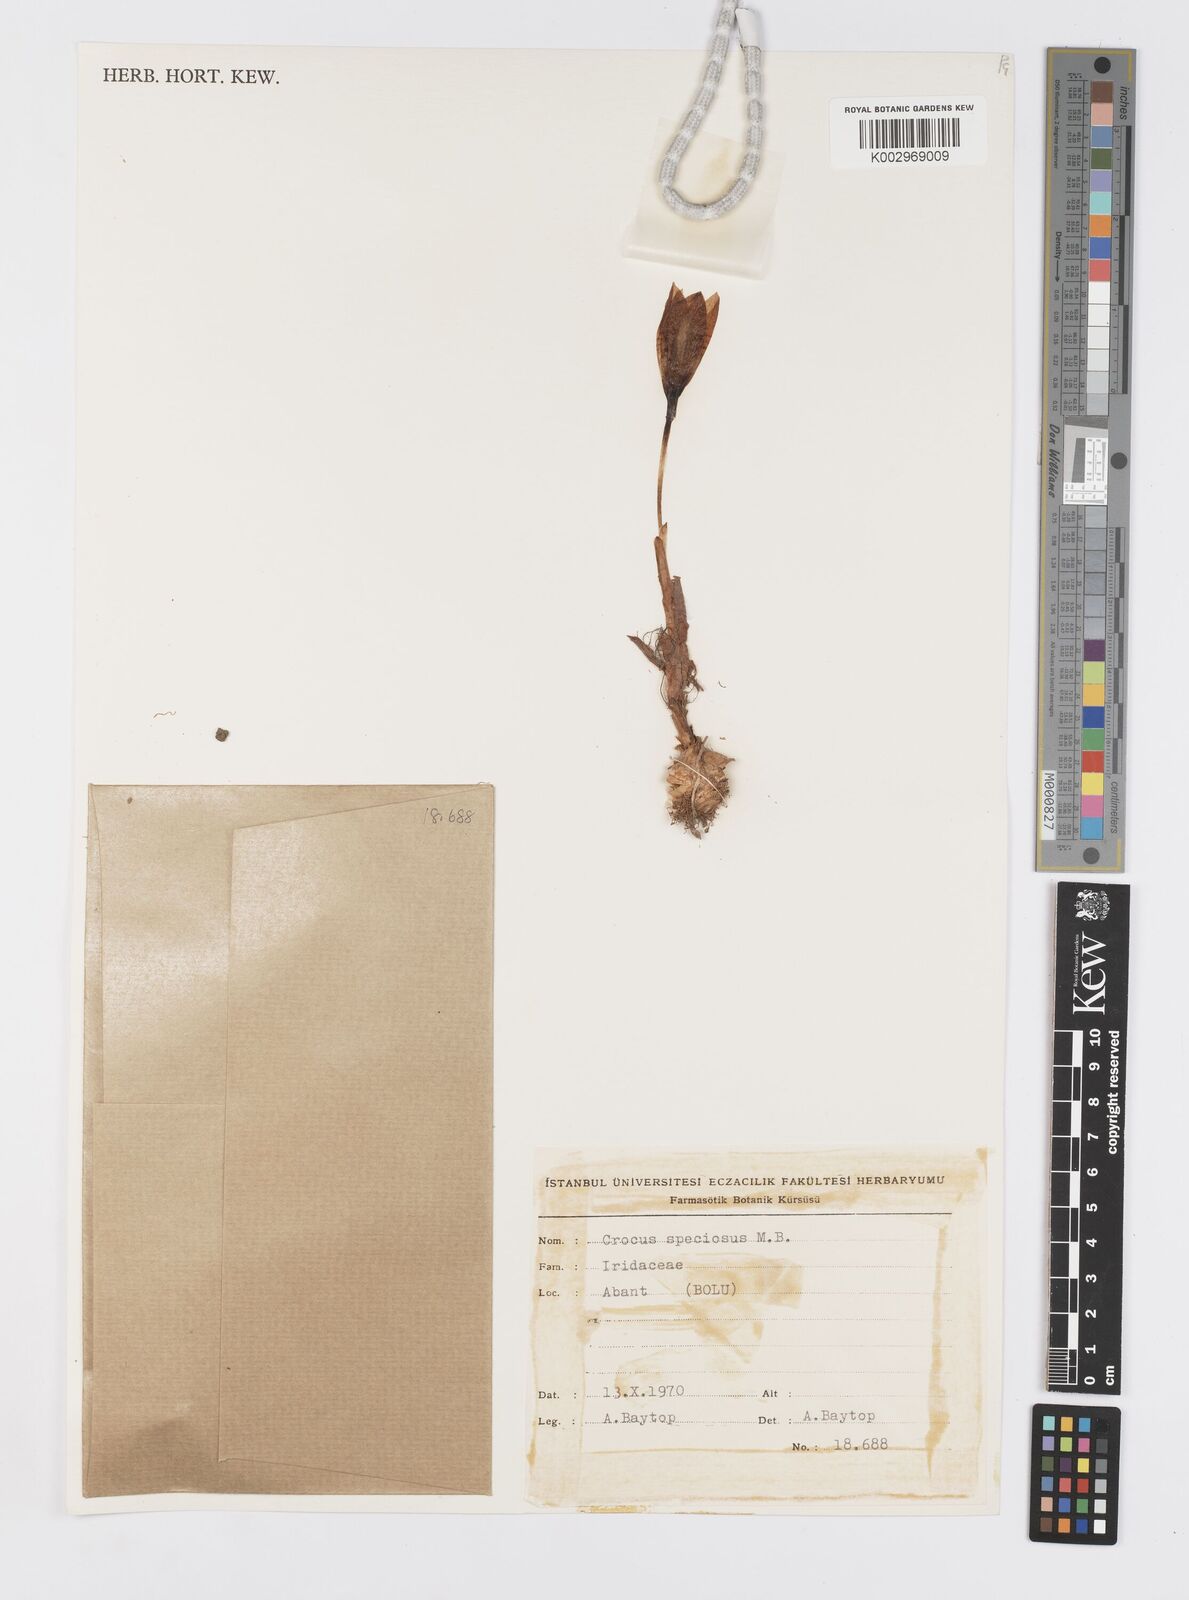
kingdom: Plantae
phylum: Tracheophyta
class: Liliopsida
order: Asparagales
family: Iridaceae
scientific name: Iridaceae
